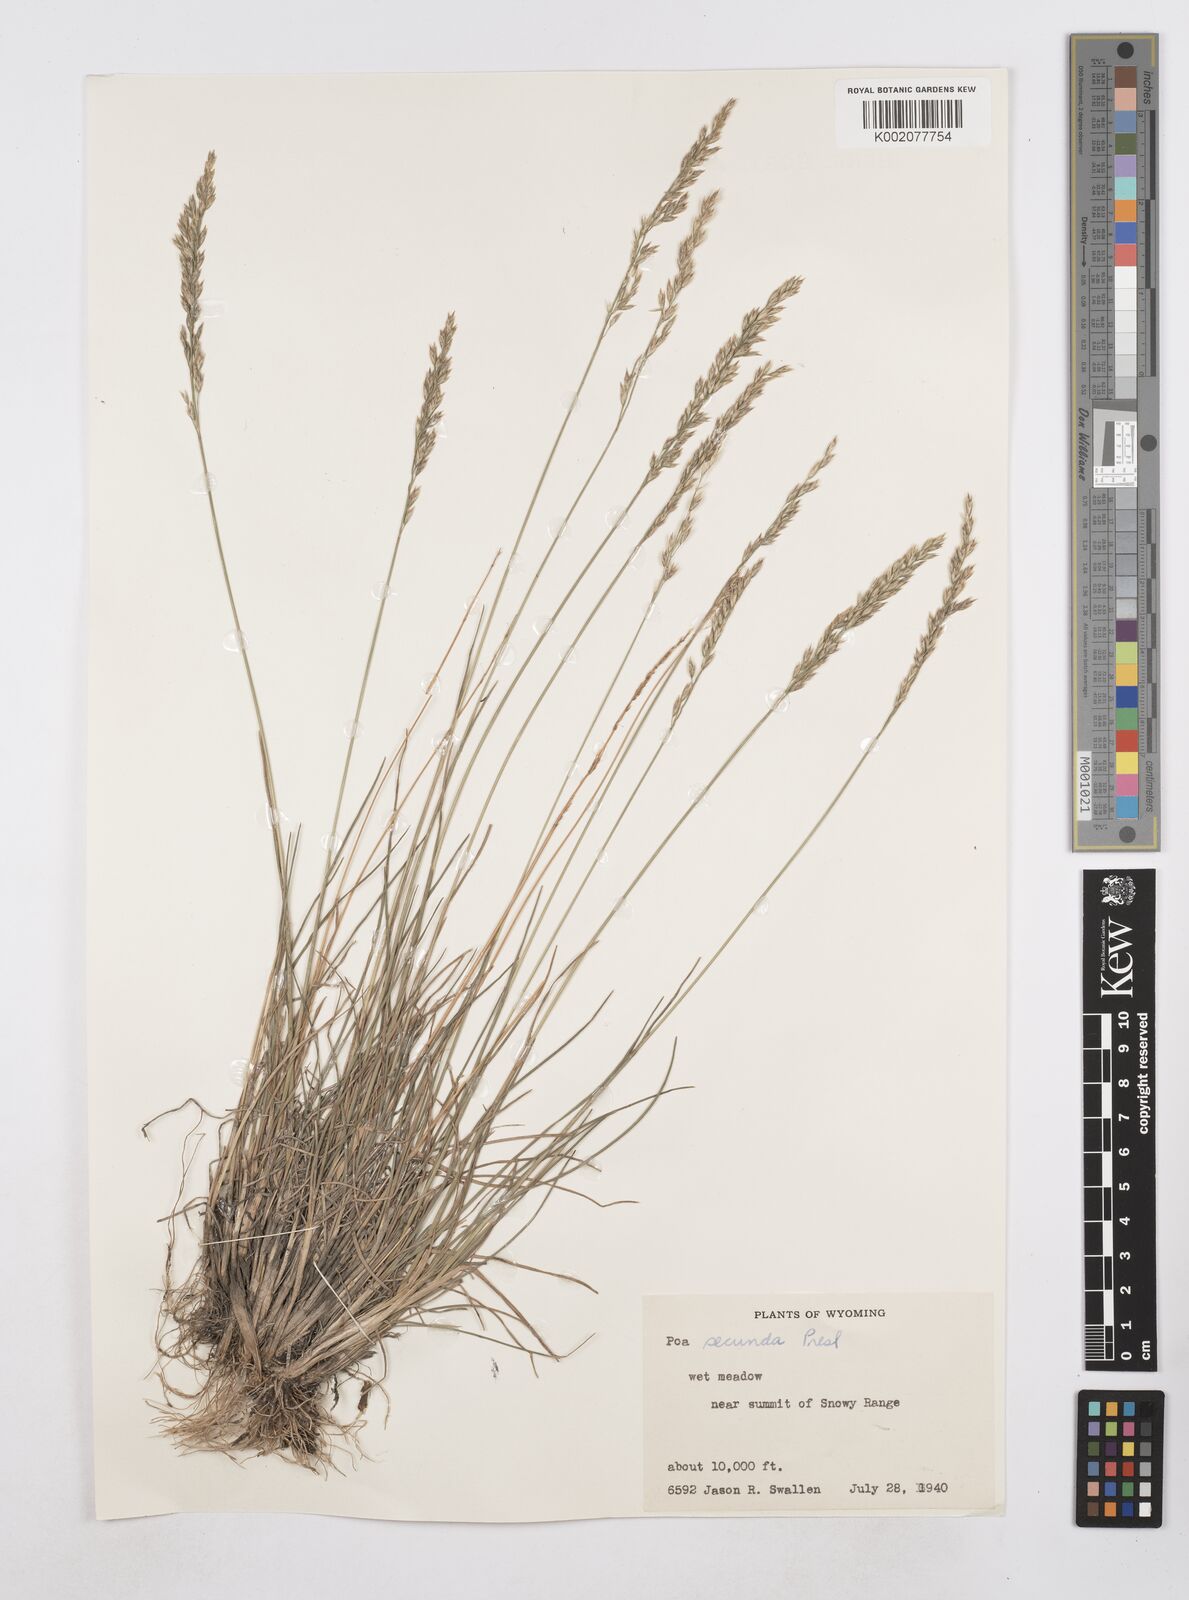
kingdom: Plantae
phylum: Tracheophyta
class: Liliopsida
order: Poales
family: Poaceae
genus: Poa
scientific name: Poa secunda
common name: Sandberg bluegrass
